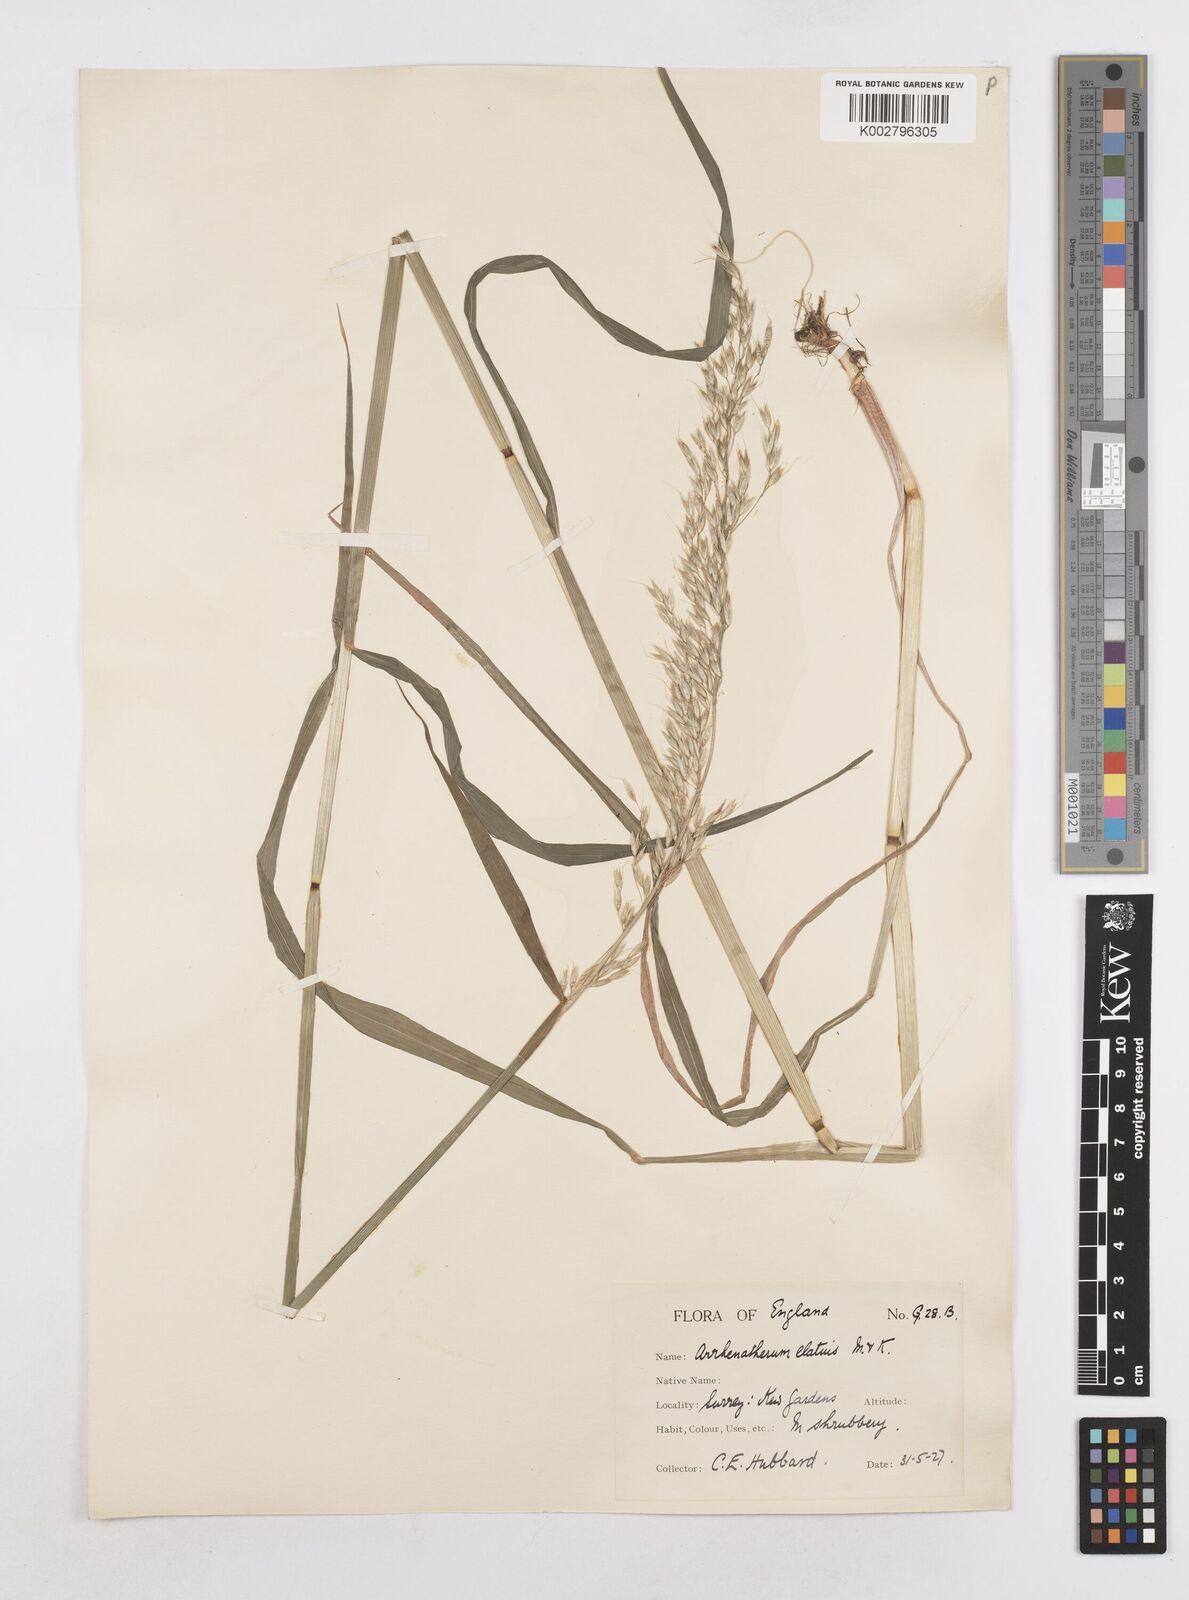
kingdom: Plantae
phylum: Tracheophyta
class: Liliopsida
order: Poales
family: Poaceae
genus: Arrhenatherum
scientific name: Arrhenatherum elatius
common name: Tall oatgrass
